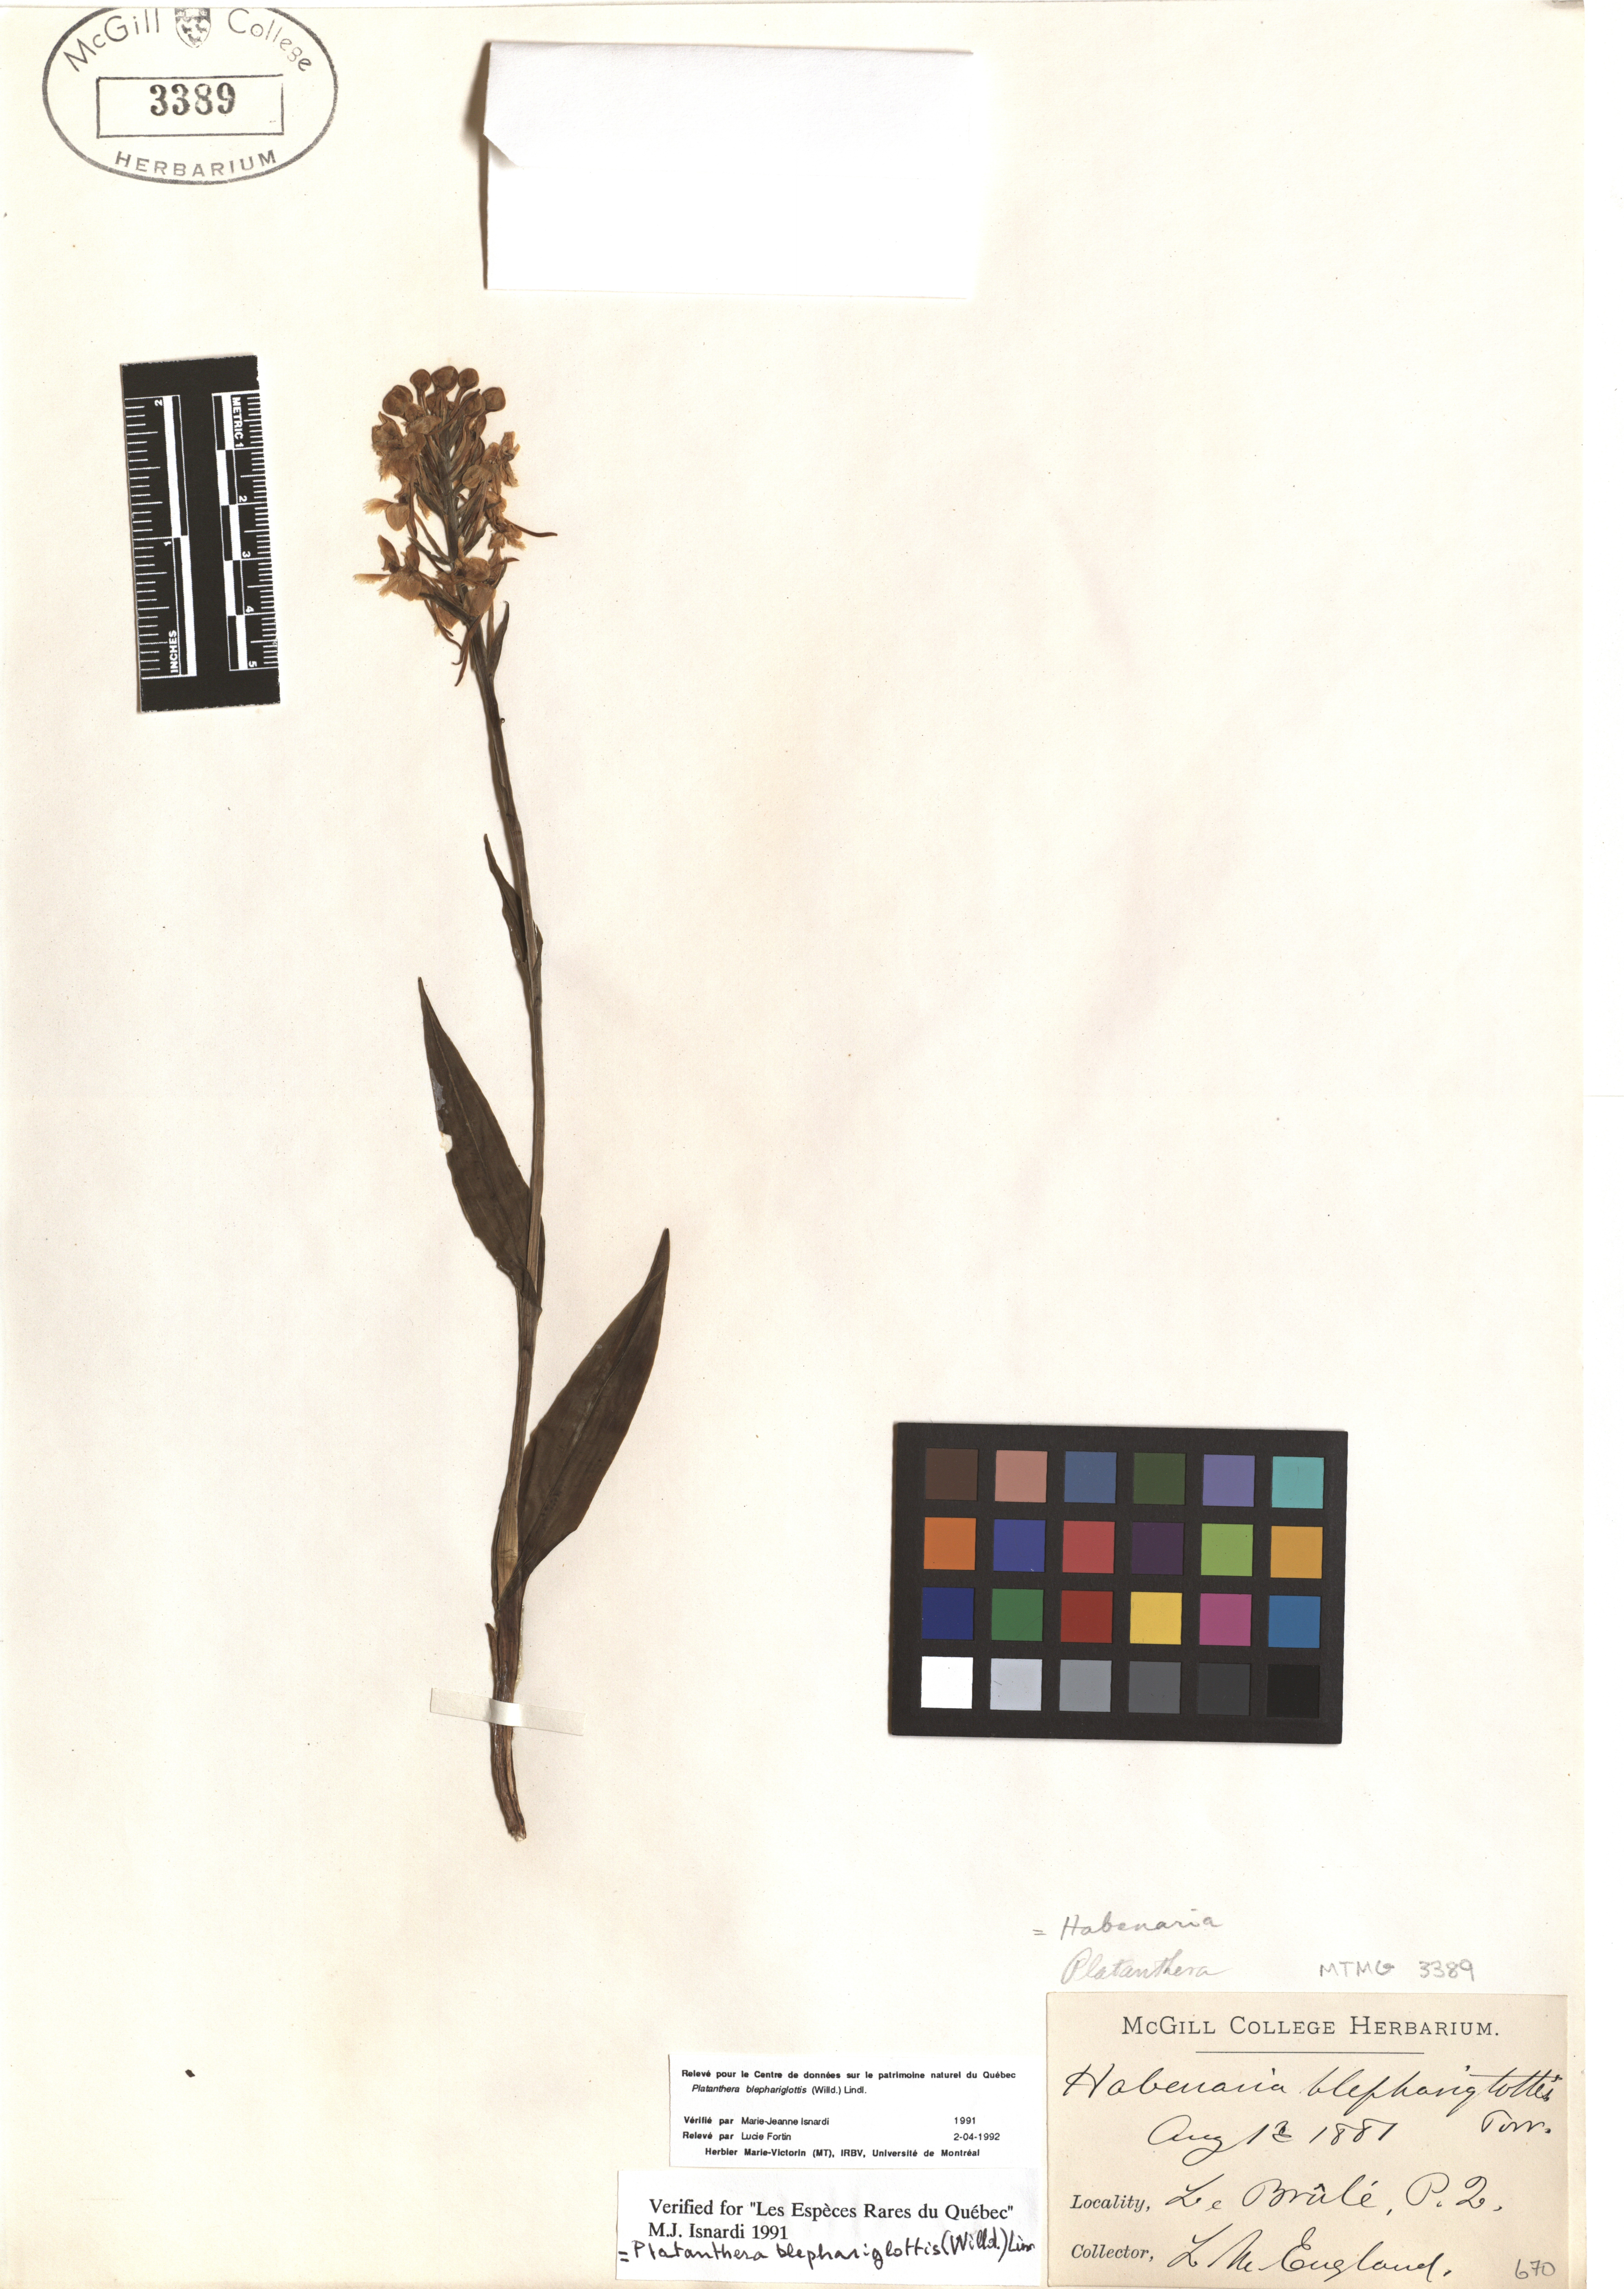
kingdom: Plantae
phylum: Tracheophyta
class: Liliopsida
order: Asparagales
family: Orchidaceae
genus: Platanthera
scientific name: Platanthera blephariglottis
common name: White fringed orchid
